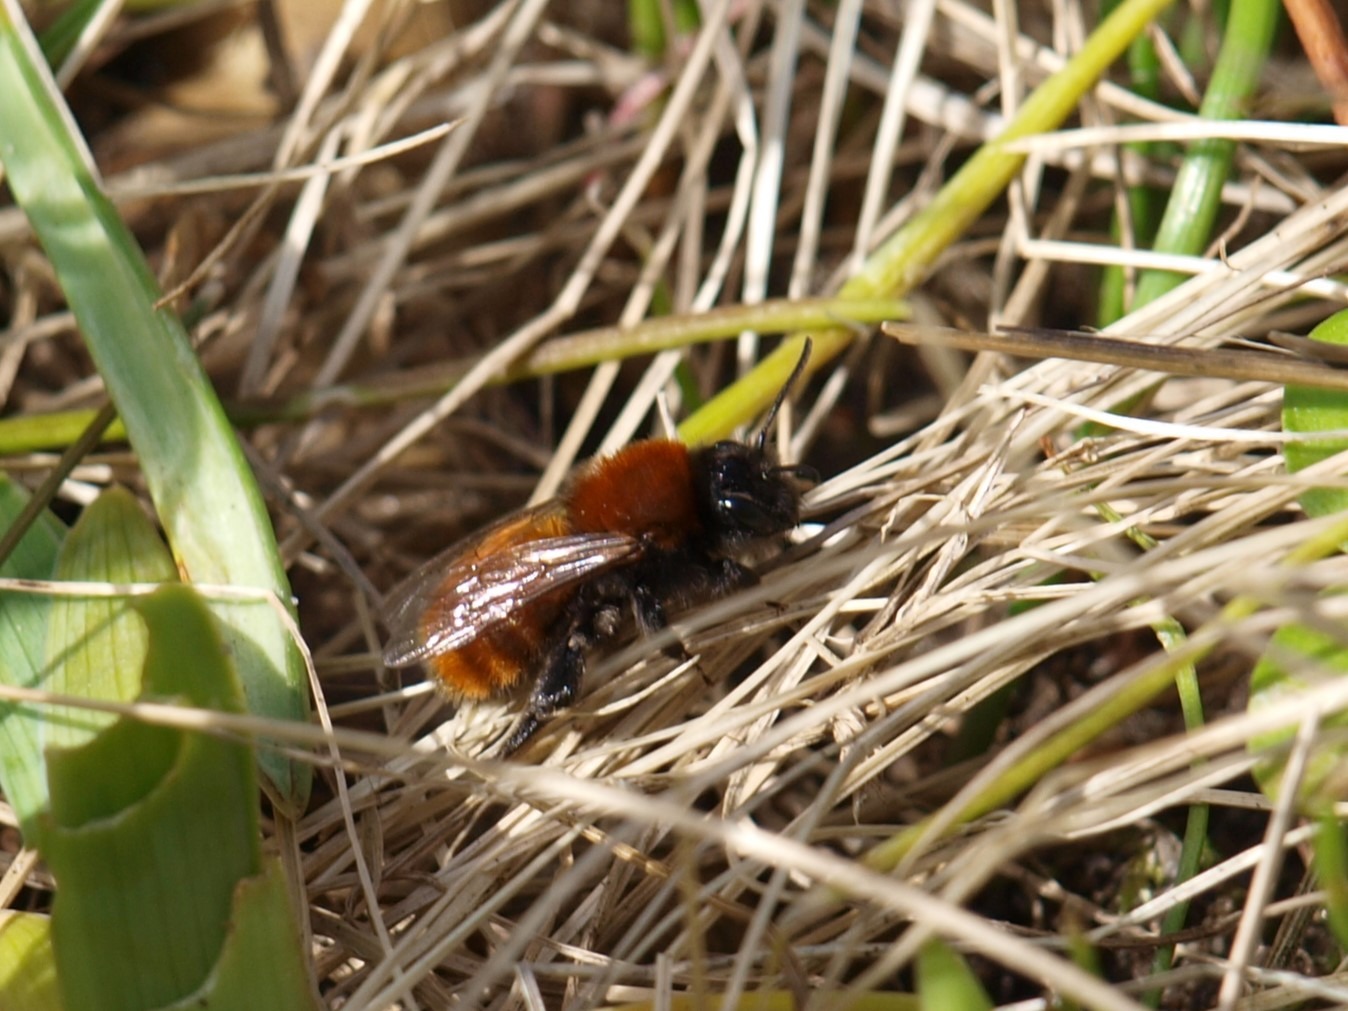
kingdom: Animalia
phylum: Arthropoda
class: Insecta
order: Hymenoptera
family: Andrenidae
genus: Andrena
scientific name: Andrena fulva
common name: Rødpelset jordbi
